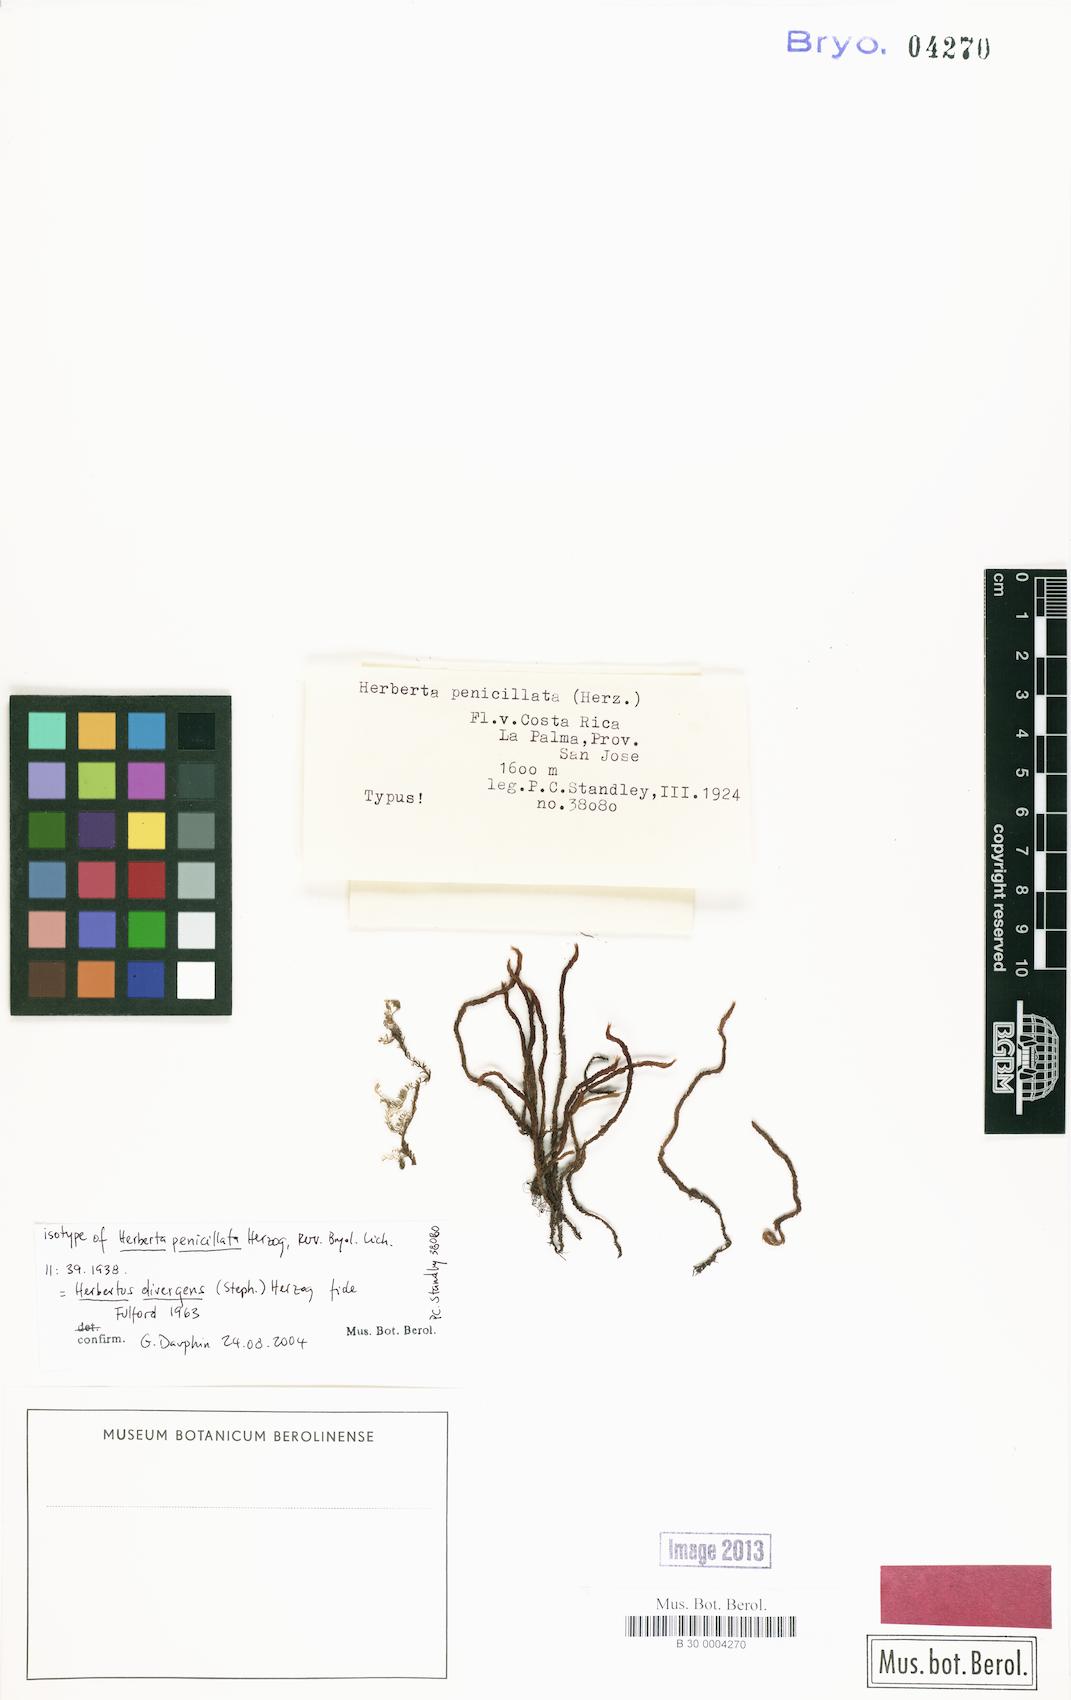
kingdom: Plantae
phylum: Marchantiophyta
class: Jungermanniopsida
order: Jungermanniales
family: Herbertaceae
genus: Herbertus
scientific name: Herbertus bivittatus
